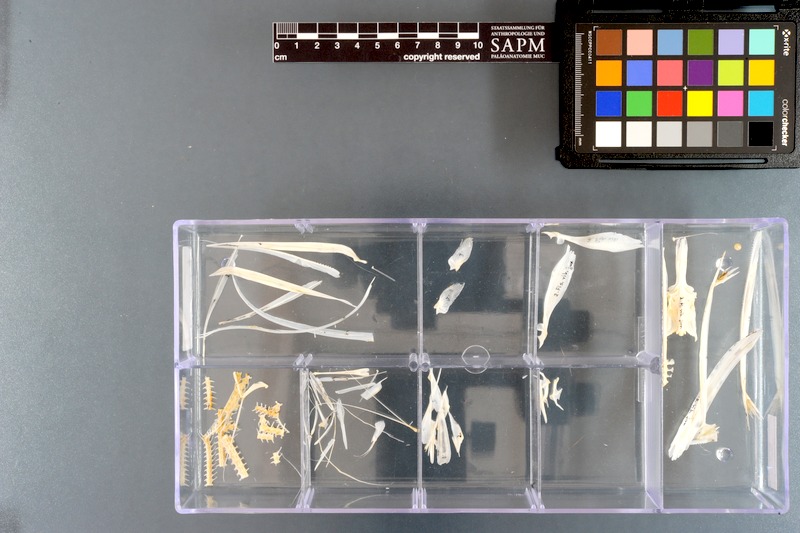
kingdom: Animalia
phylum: Chordata
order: Syngnathiformes
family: Fistulariidae
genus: Fistularia
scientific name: Fistularia petimba
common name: Red cornetfish
